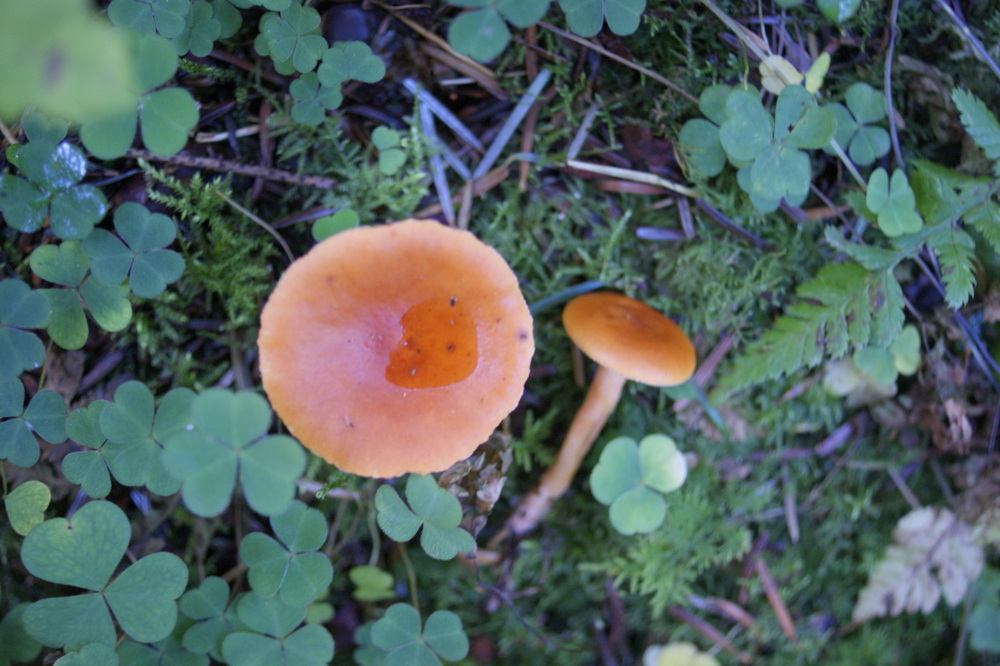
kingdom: Fungi
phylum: Basidiomycota
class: Agaricomycetes
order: Russulales
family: Russulaceae
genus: Lactarius
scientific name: Lactarius aurantiacus
